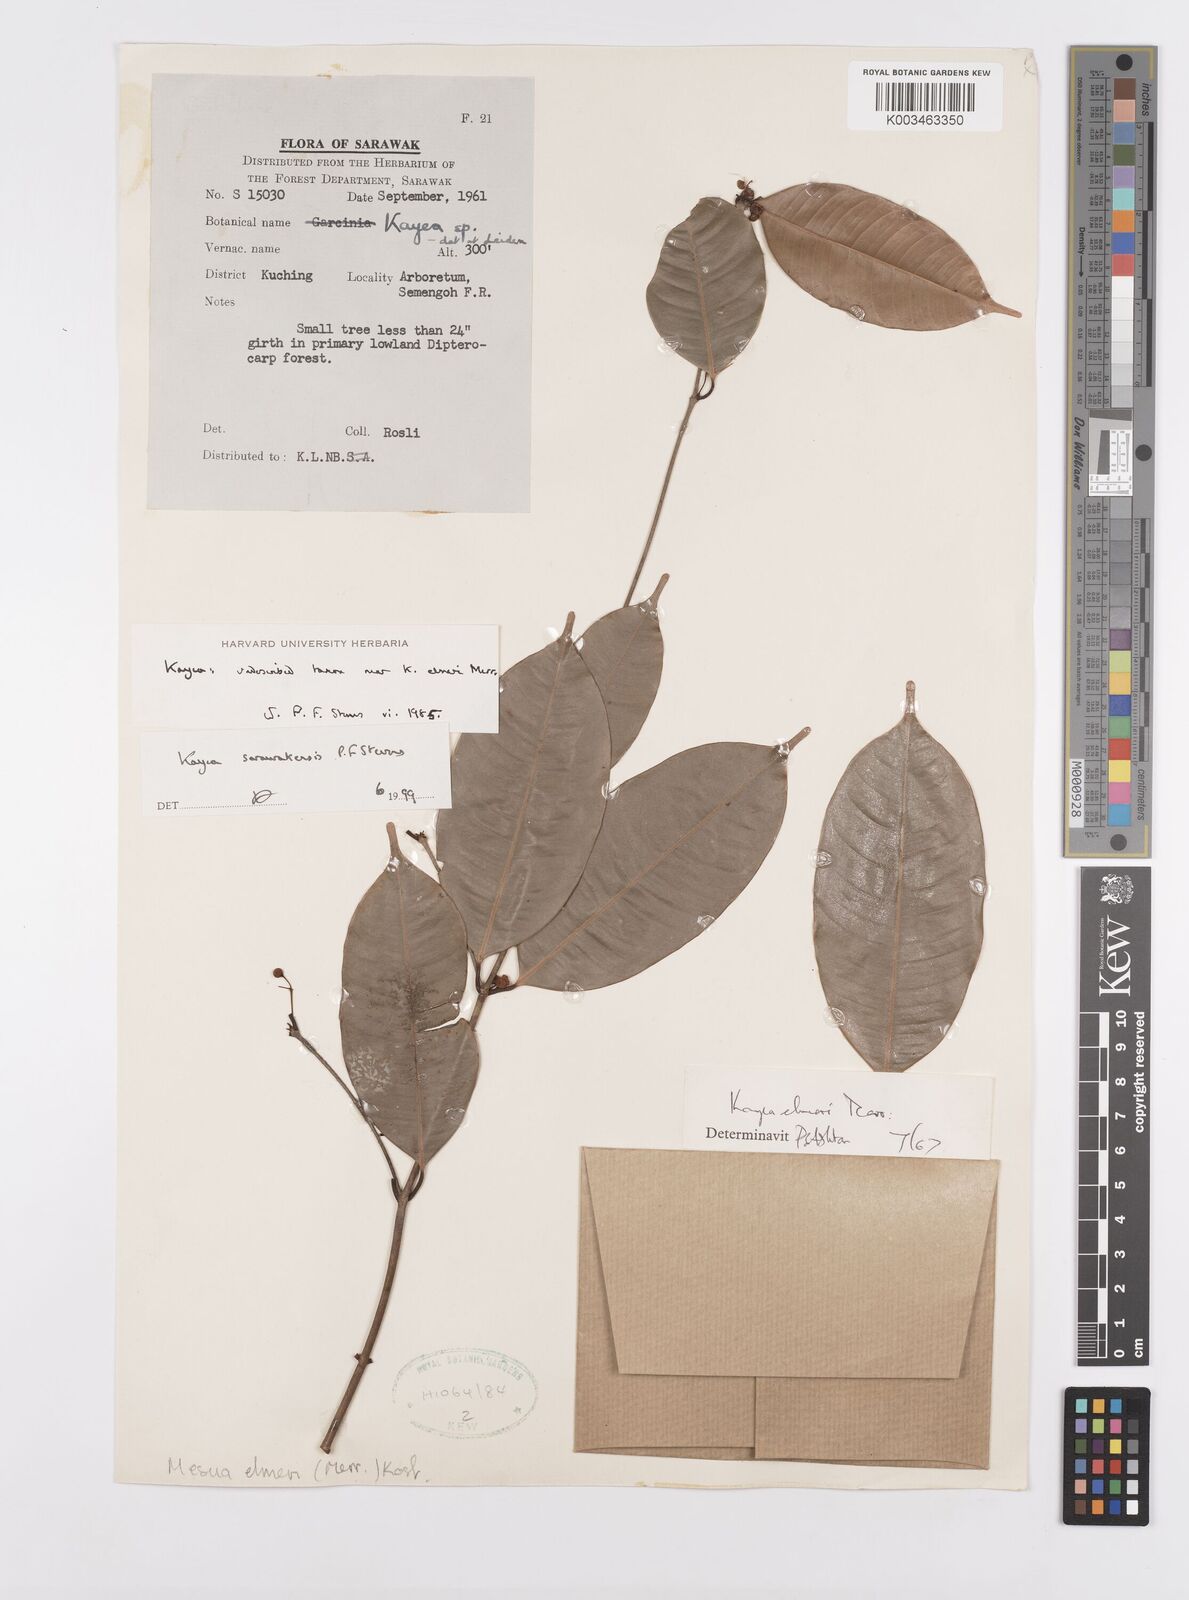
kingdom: Plantae
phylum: Tracheophyta
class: Magnoliopsida
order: Malpighiales
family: Calophyllaceae
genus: Kayea
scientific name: Kayea
